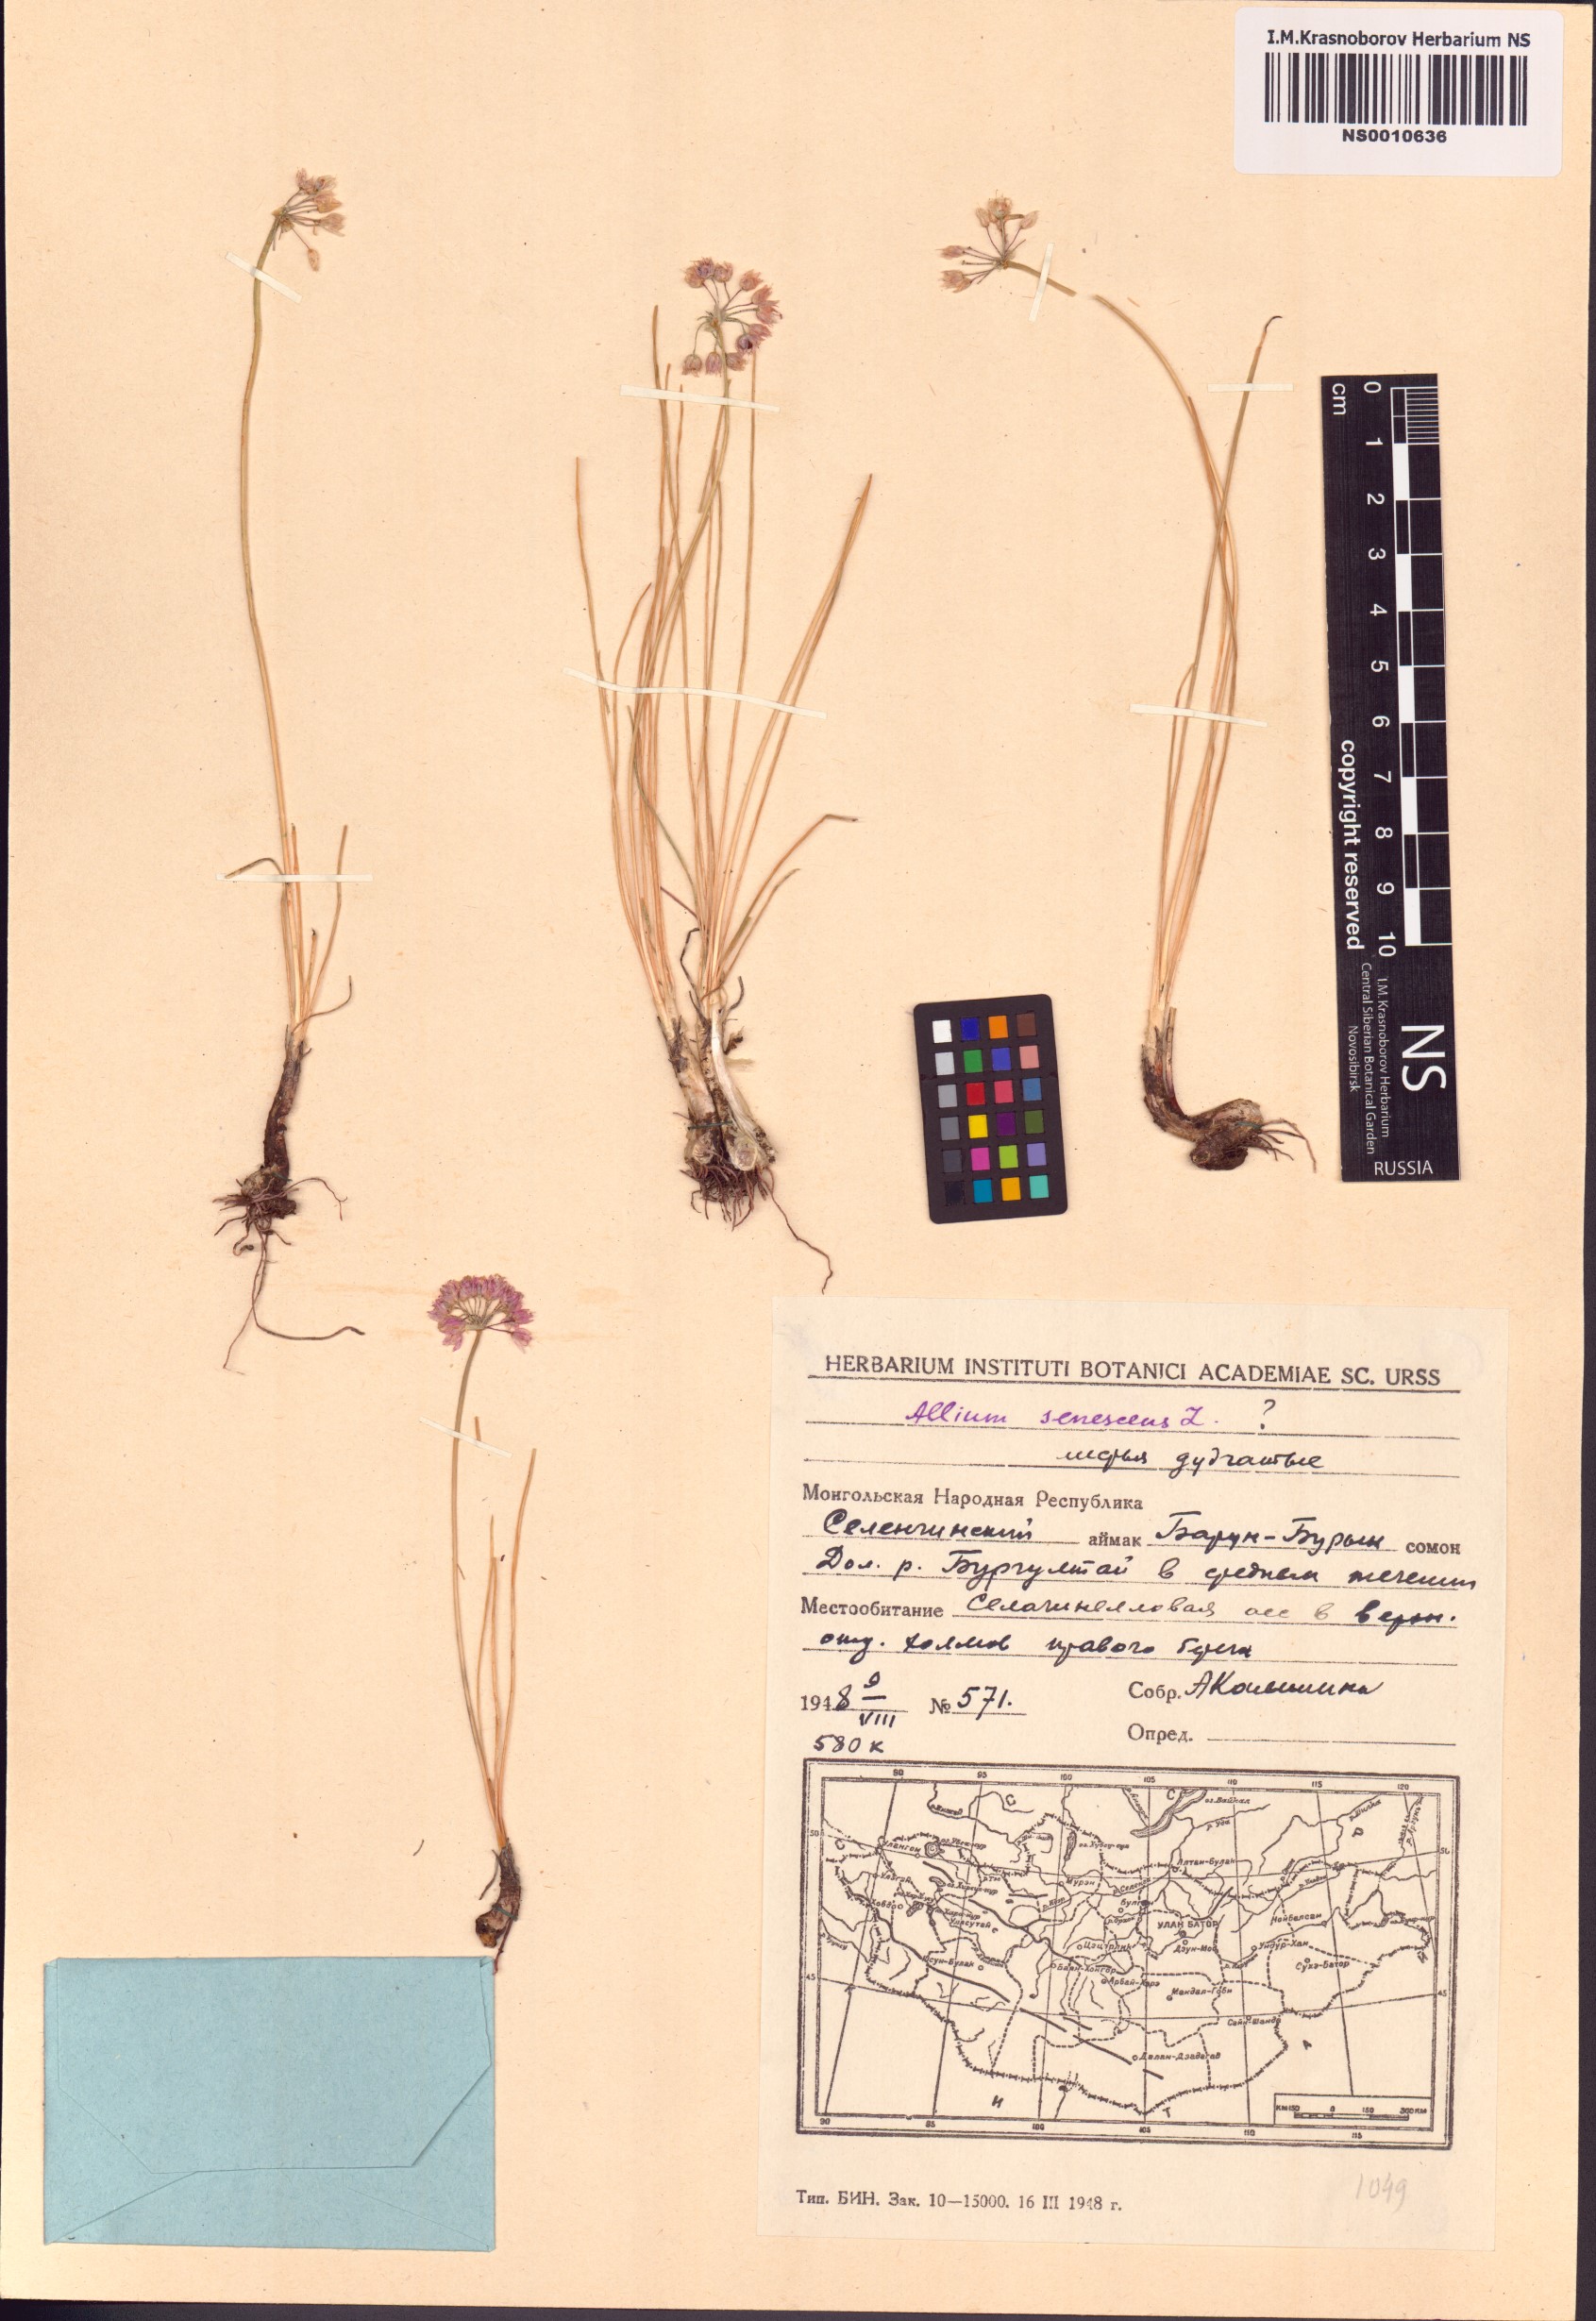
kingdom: Plantae
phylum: Tracheophyta
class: Liliopsida
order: Asparagales
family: Amaryllidaceae
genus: Allium
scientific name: Allium senescens
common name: German garlic
